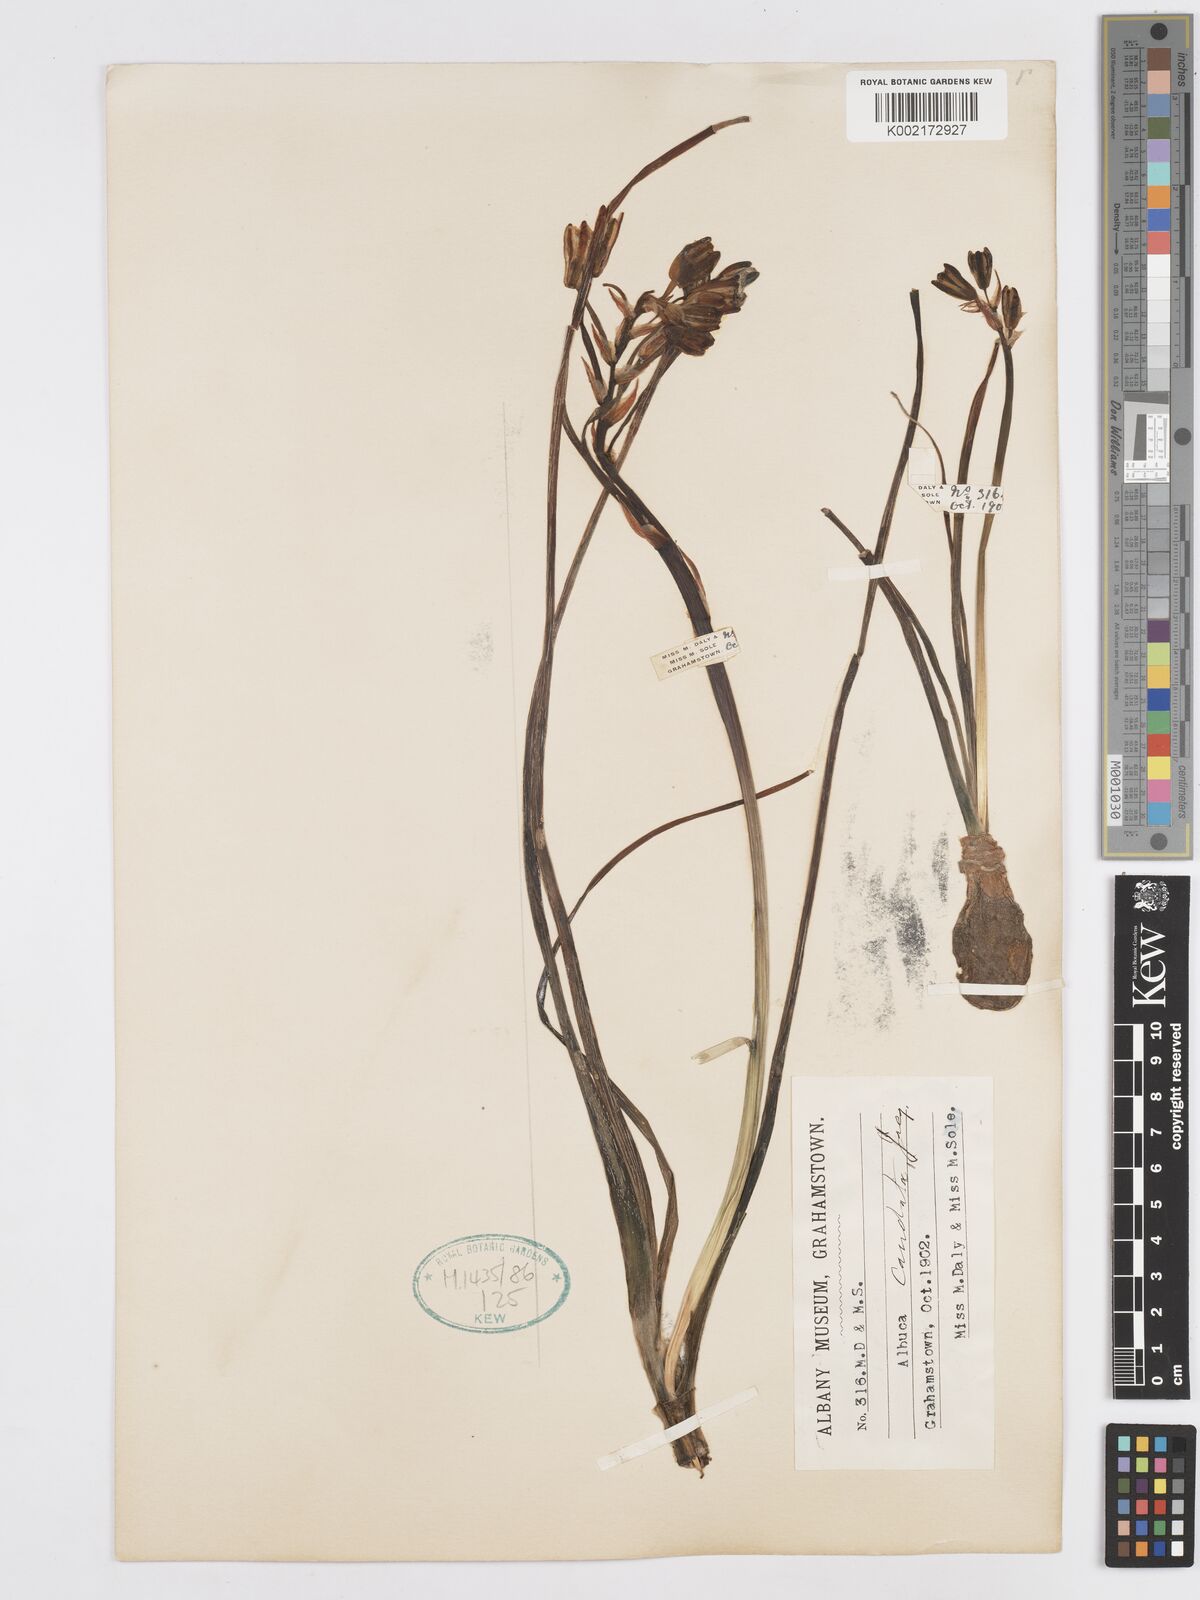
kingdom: Plantae
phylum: Tracheophyta
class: Liliopsida
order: Asparagales
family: Asparagaceae
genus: Albuca
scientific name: Albuca caudata
